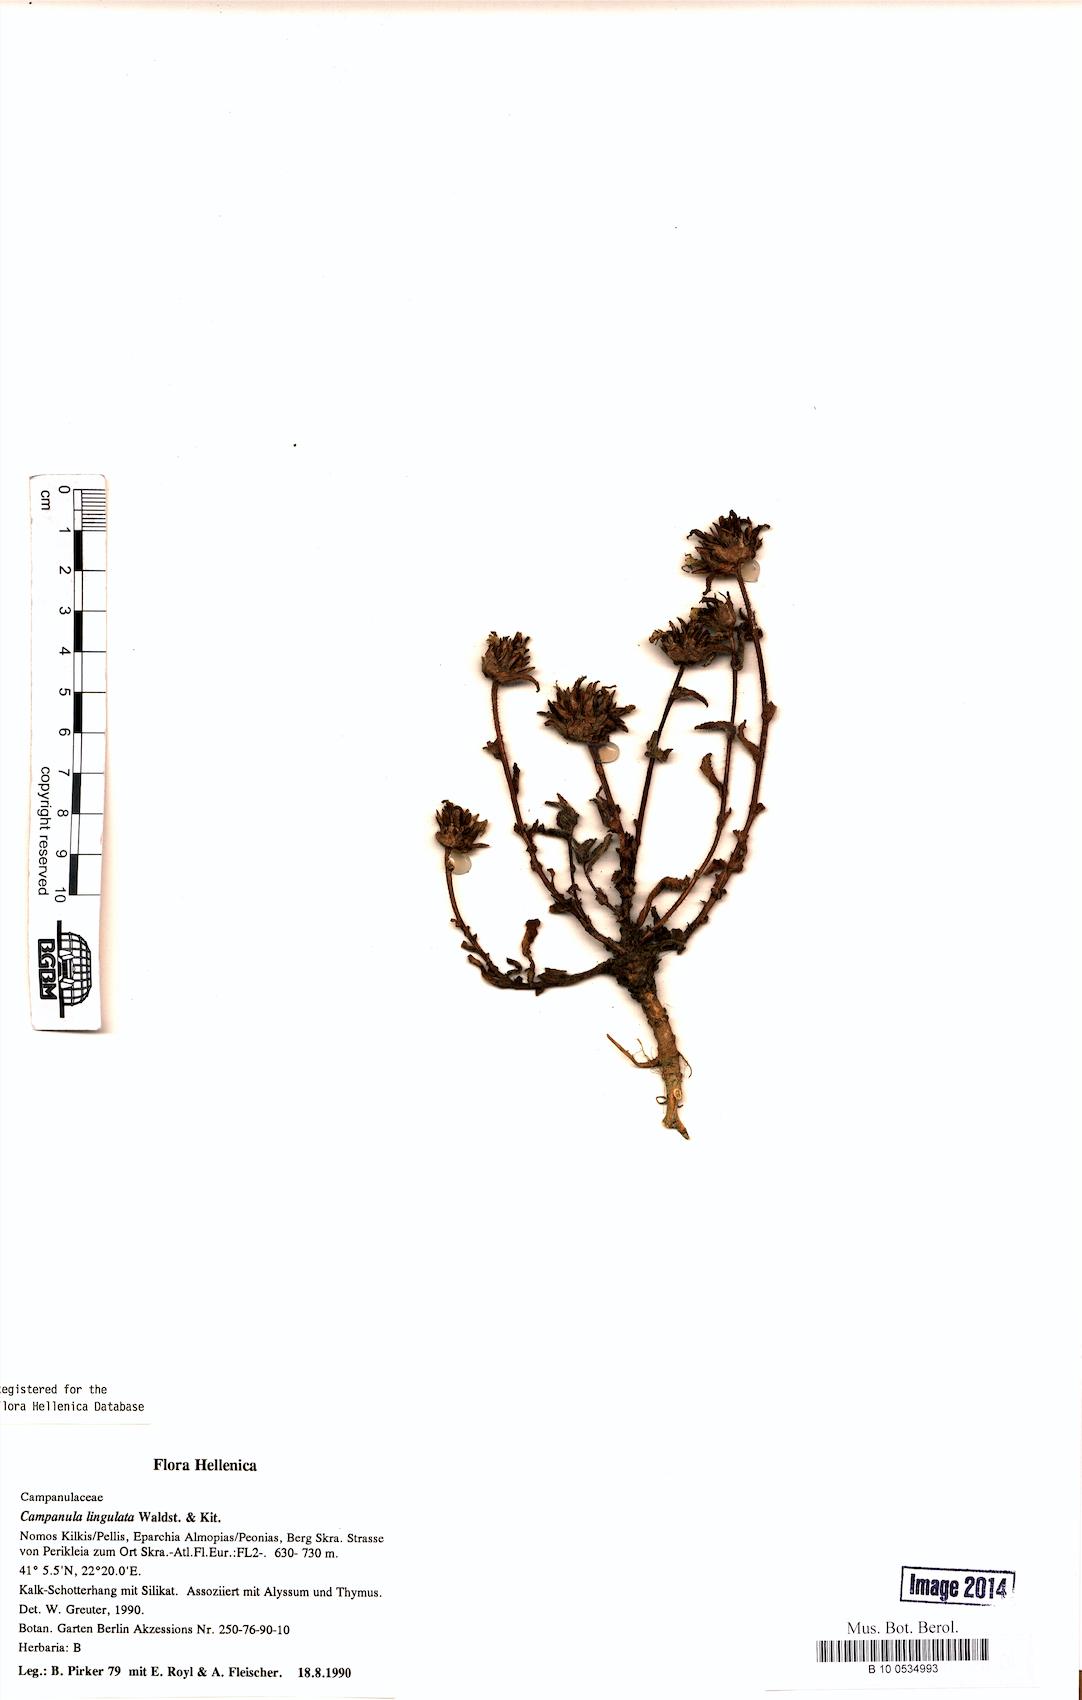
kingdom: Plantae
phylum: Tracheophyta
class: Magnoliopsida
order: Asterales
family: Campanulaceae
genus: Campanula
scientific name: Campanula lingulata
